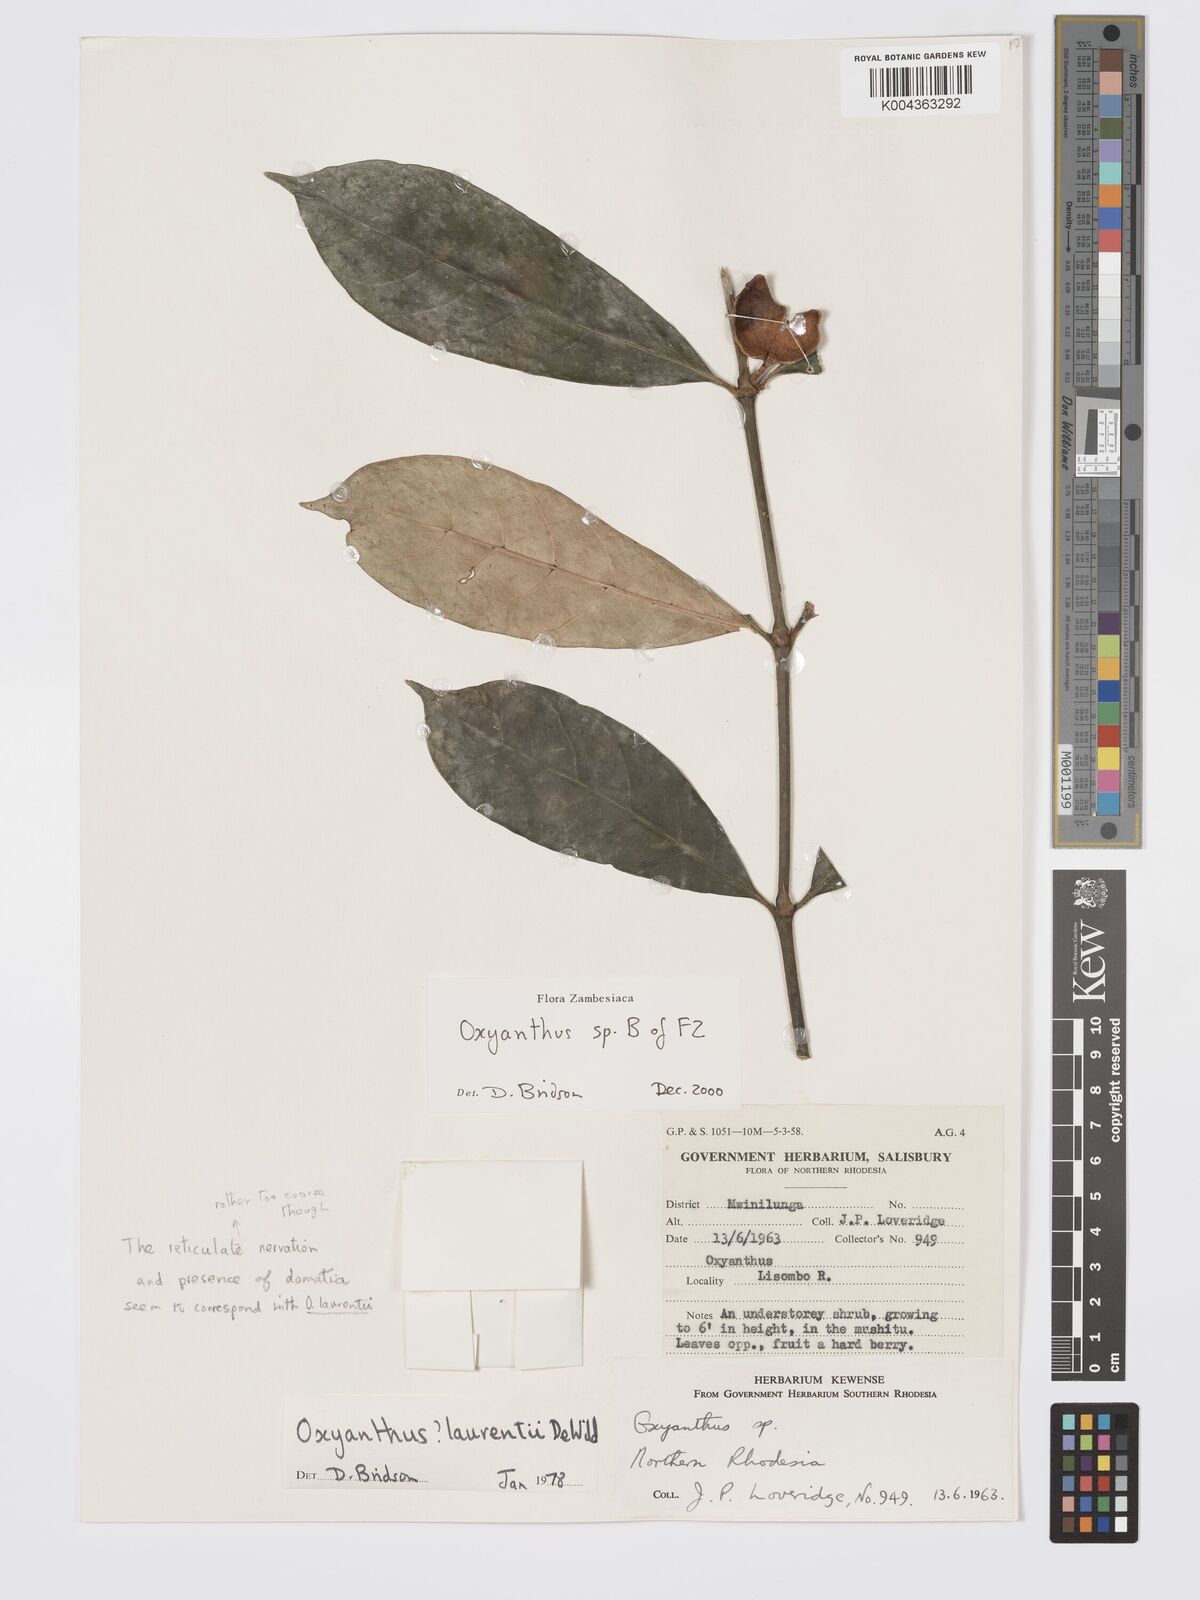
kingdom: Plantae
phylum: Tracheophyta
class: Magnoliopsida
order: Gentianales
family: Rubiaceae
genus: Oxyanthus
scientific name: Oxyanthus
